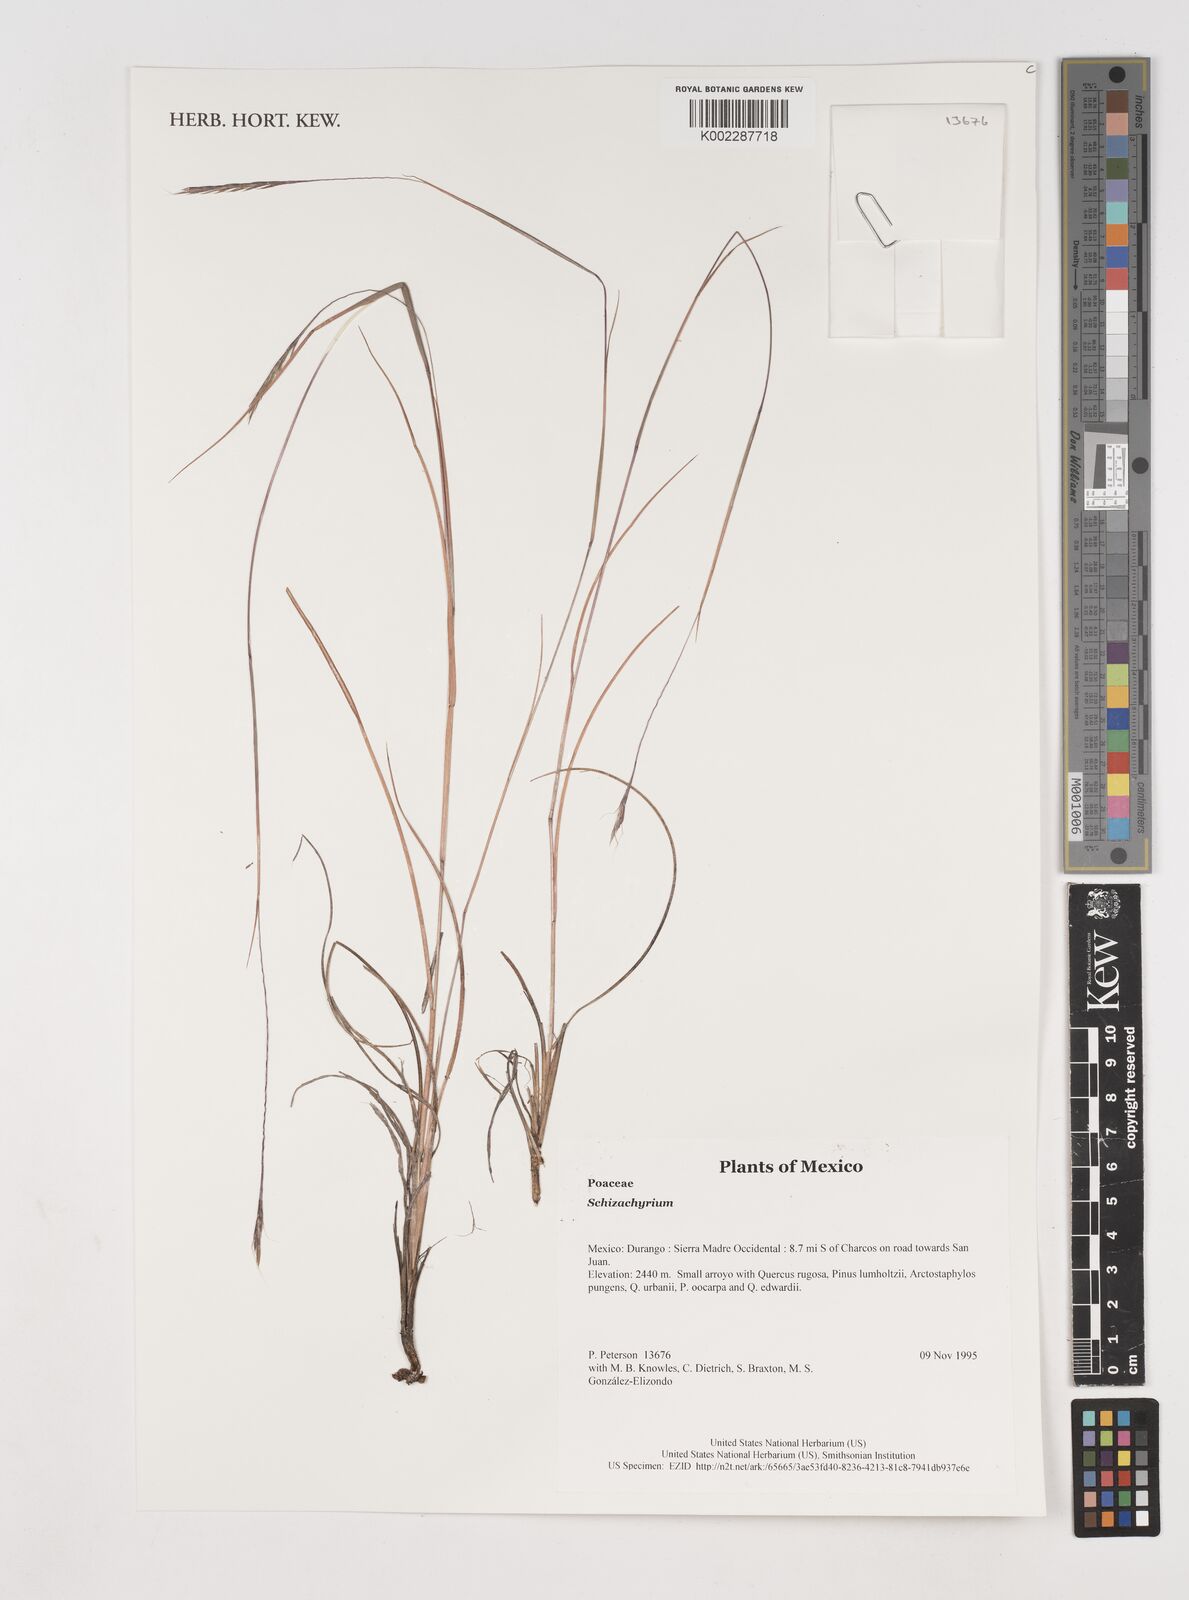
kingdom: Plantae
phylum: Tracheophyta
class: Liliopsida
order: Poales
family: Poaceae
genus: Schizachyrium
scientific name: Schizachyrium
